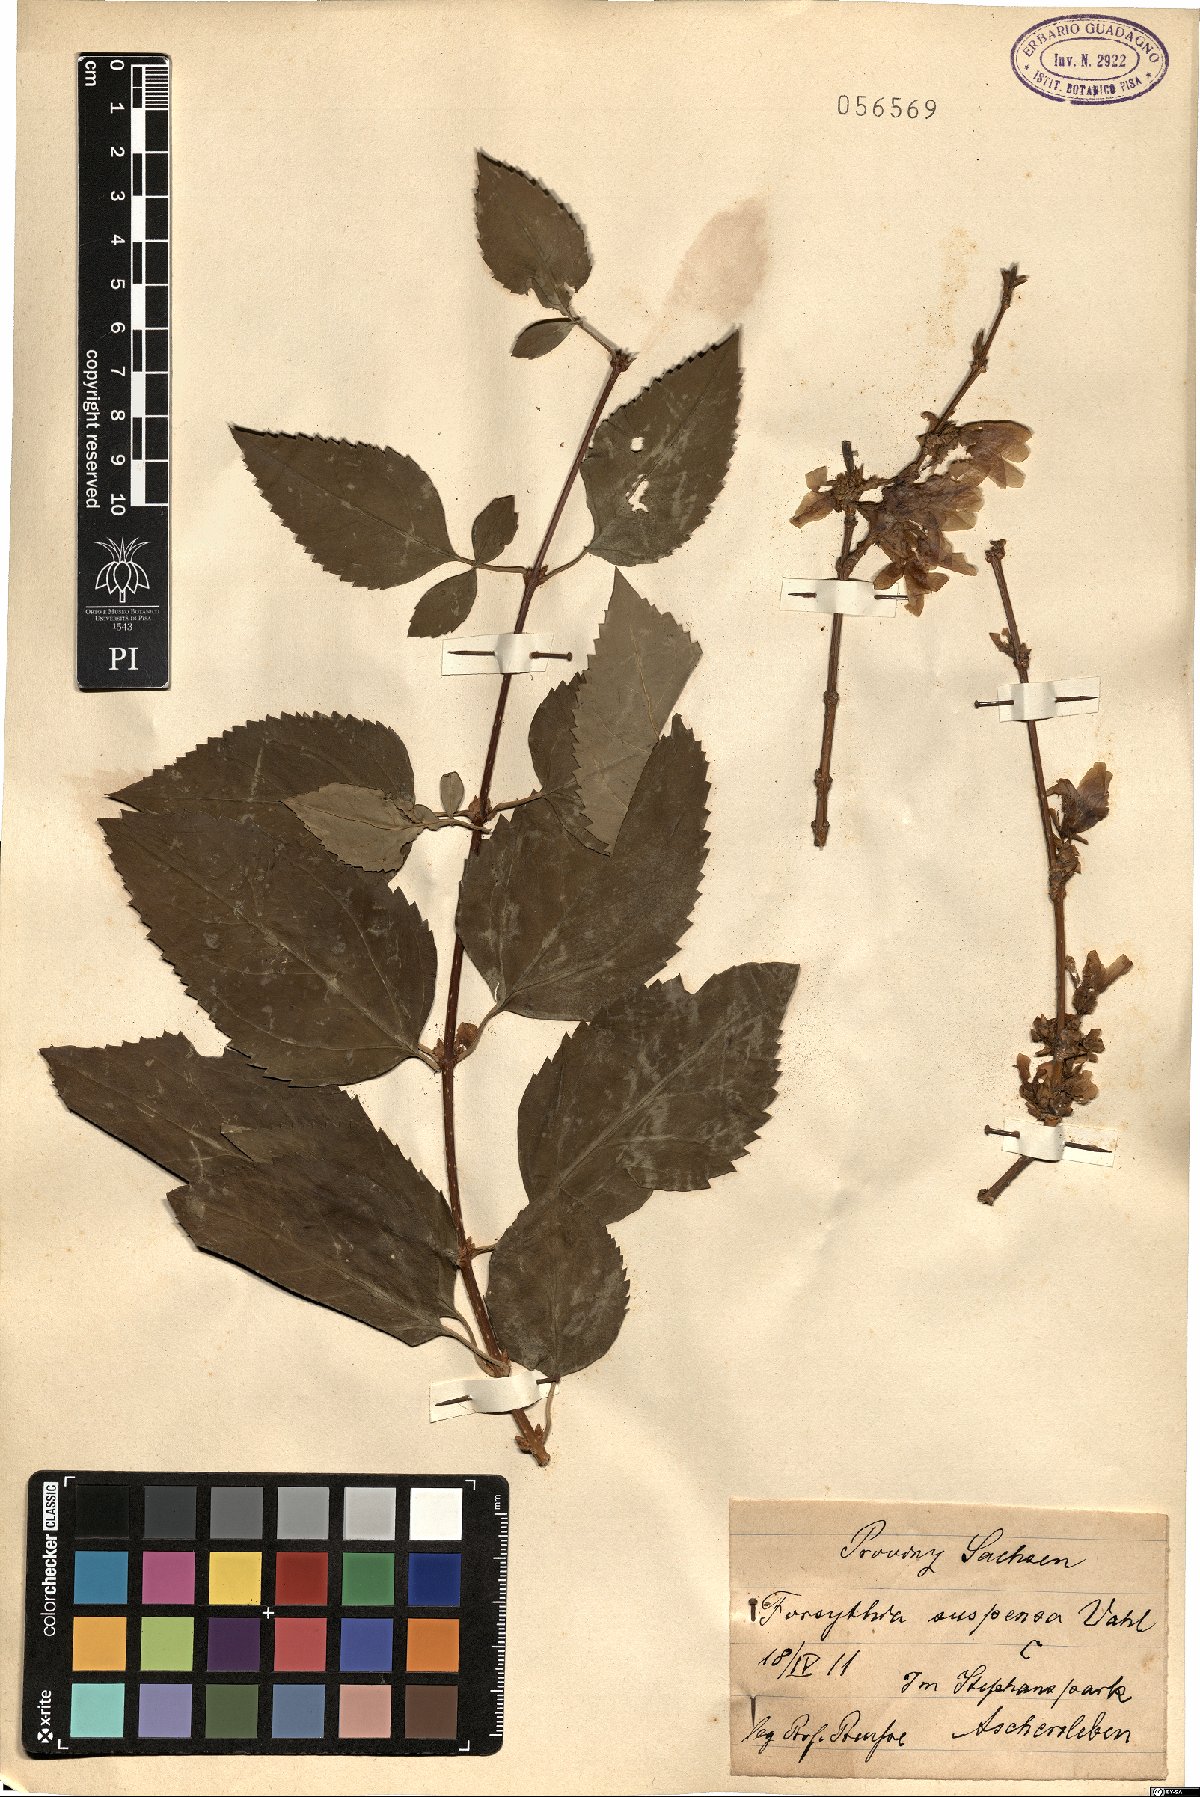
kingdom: Plantae
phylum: Tracheophyta
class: Magnoliopsida
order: Lamiales
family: Oleaceae
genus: Forsythia
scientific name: Forsythia suspensa
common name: Weeping forsythia
